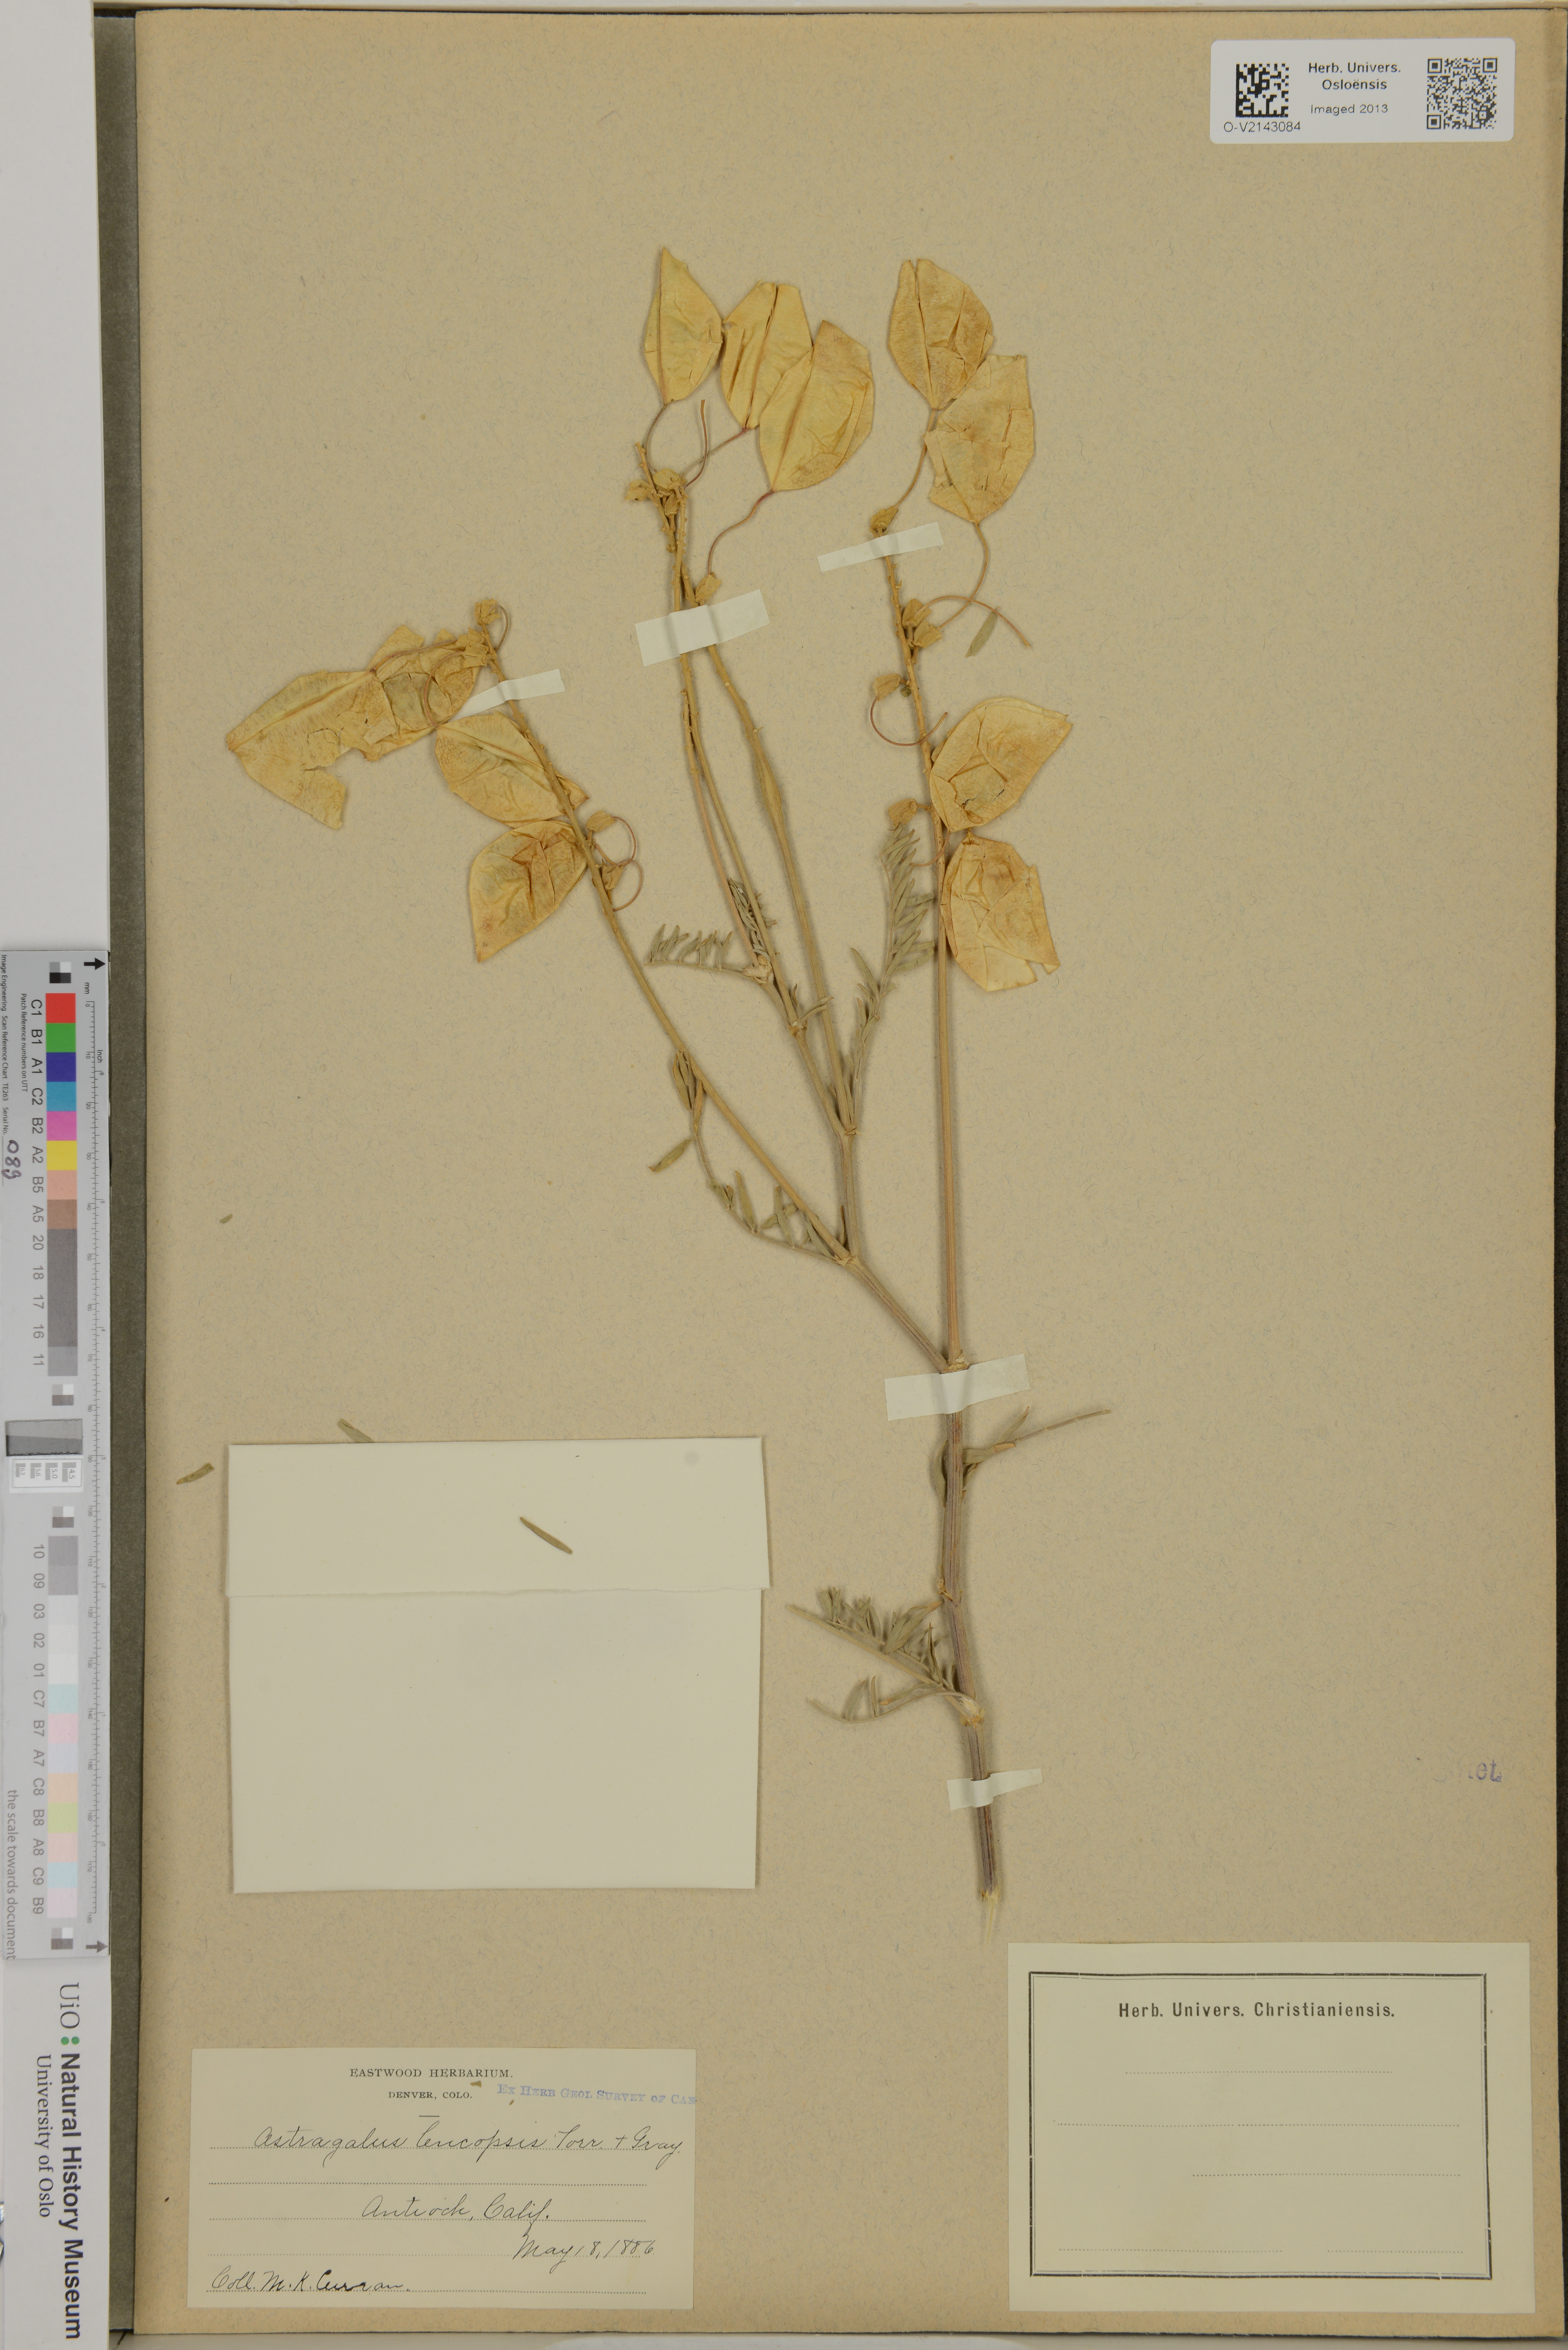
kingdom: Plantae
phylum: Tracheophyta
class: Magnoliopsida
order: Fabales
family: Fabaceae
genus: Astragalus
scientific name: Astragalus trichopodus
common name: Santa barbara milk-vetch
